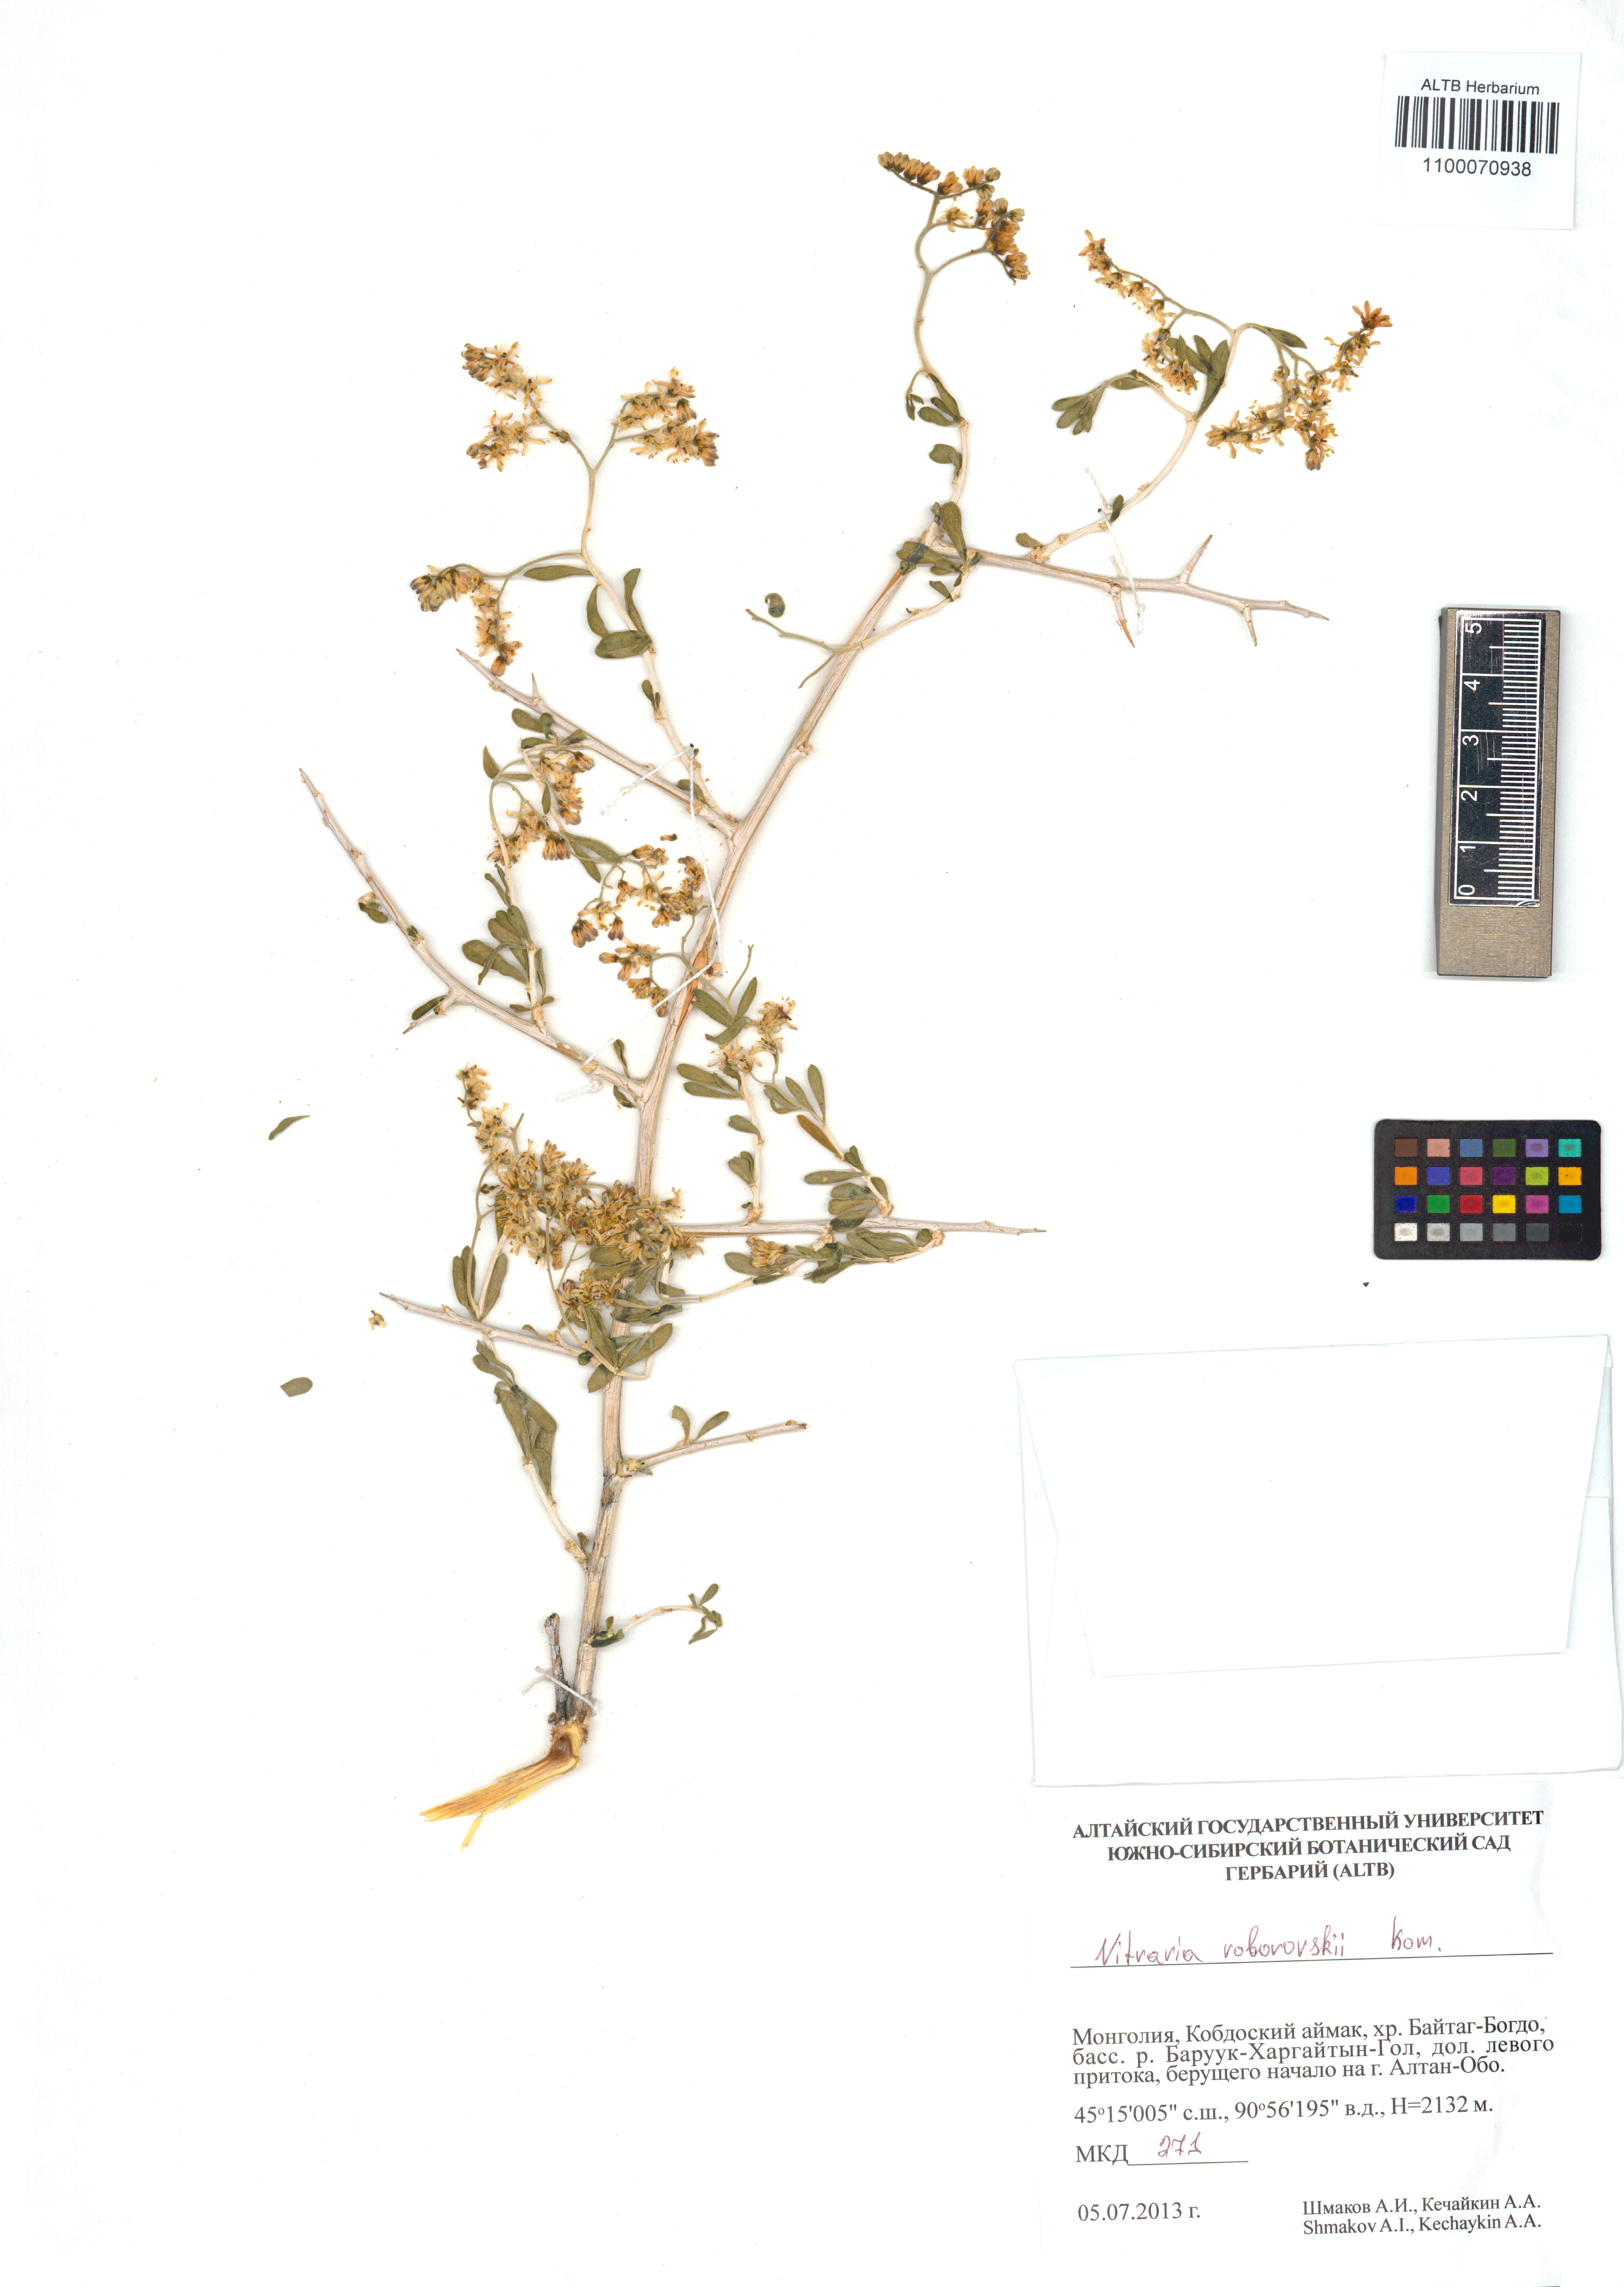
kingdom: Plantae
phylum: Tracheophyta
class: Magnoliopsida
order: Sapindales
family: Nitrariaceae
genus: Nitraria
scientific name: Nitraria roborowskii
